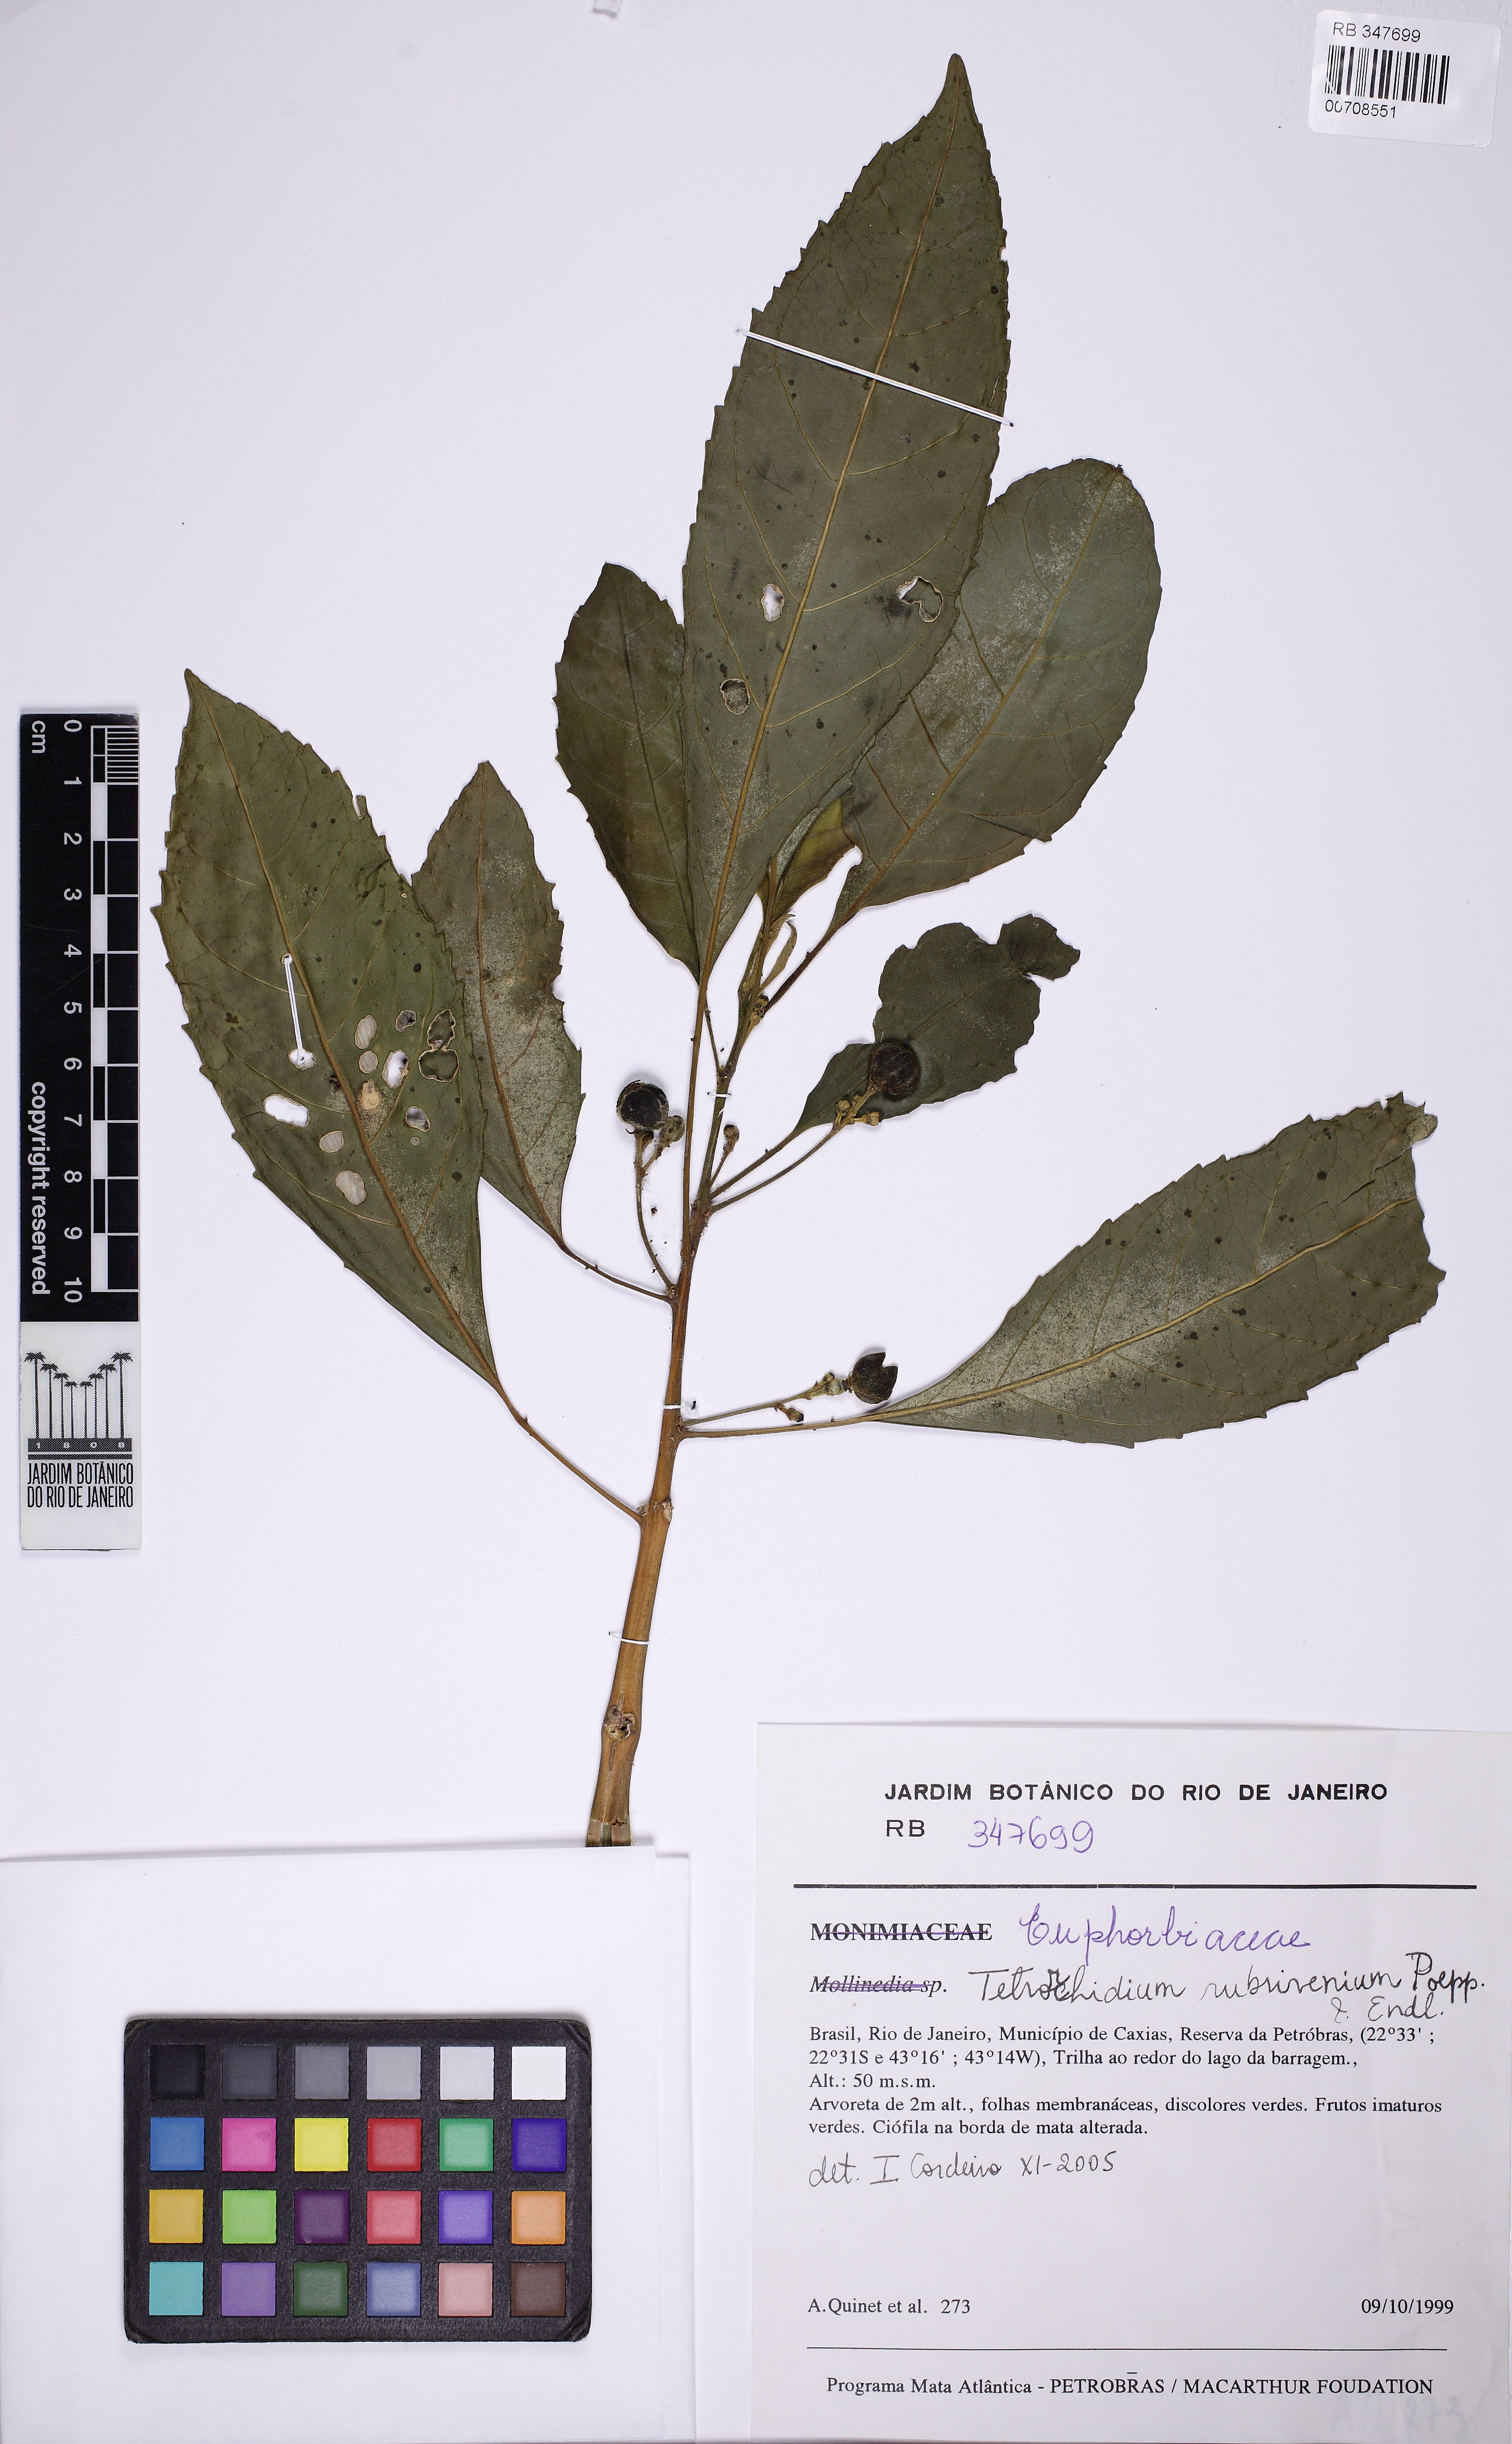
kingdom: Plantae
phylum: Tracheophyta
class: Magnoliopsida
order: Malpighiales
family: Euphorbiaceae
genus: Tetrorchidium
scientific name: Tetrorchidium rubrivenium
